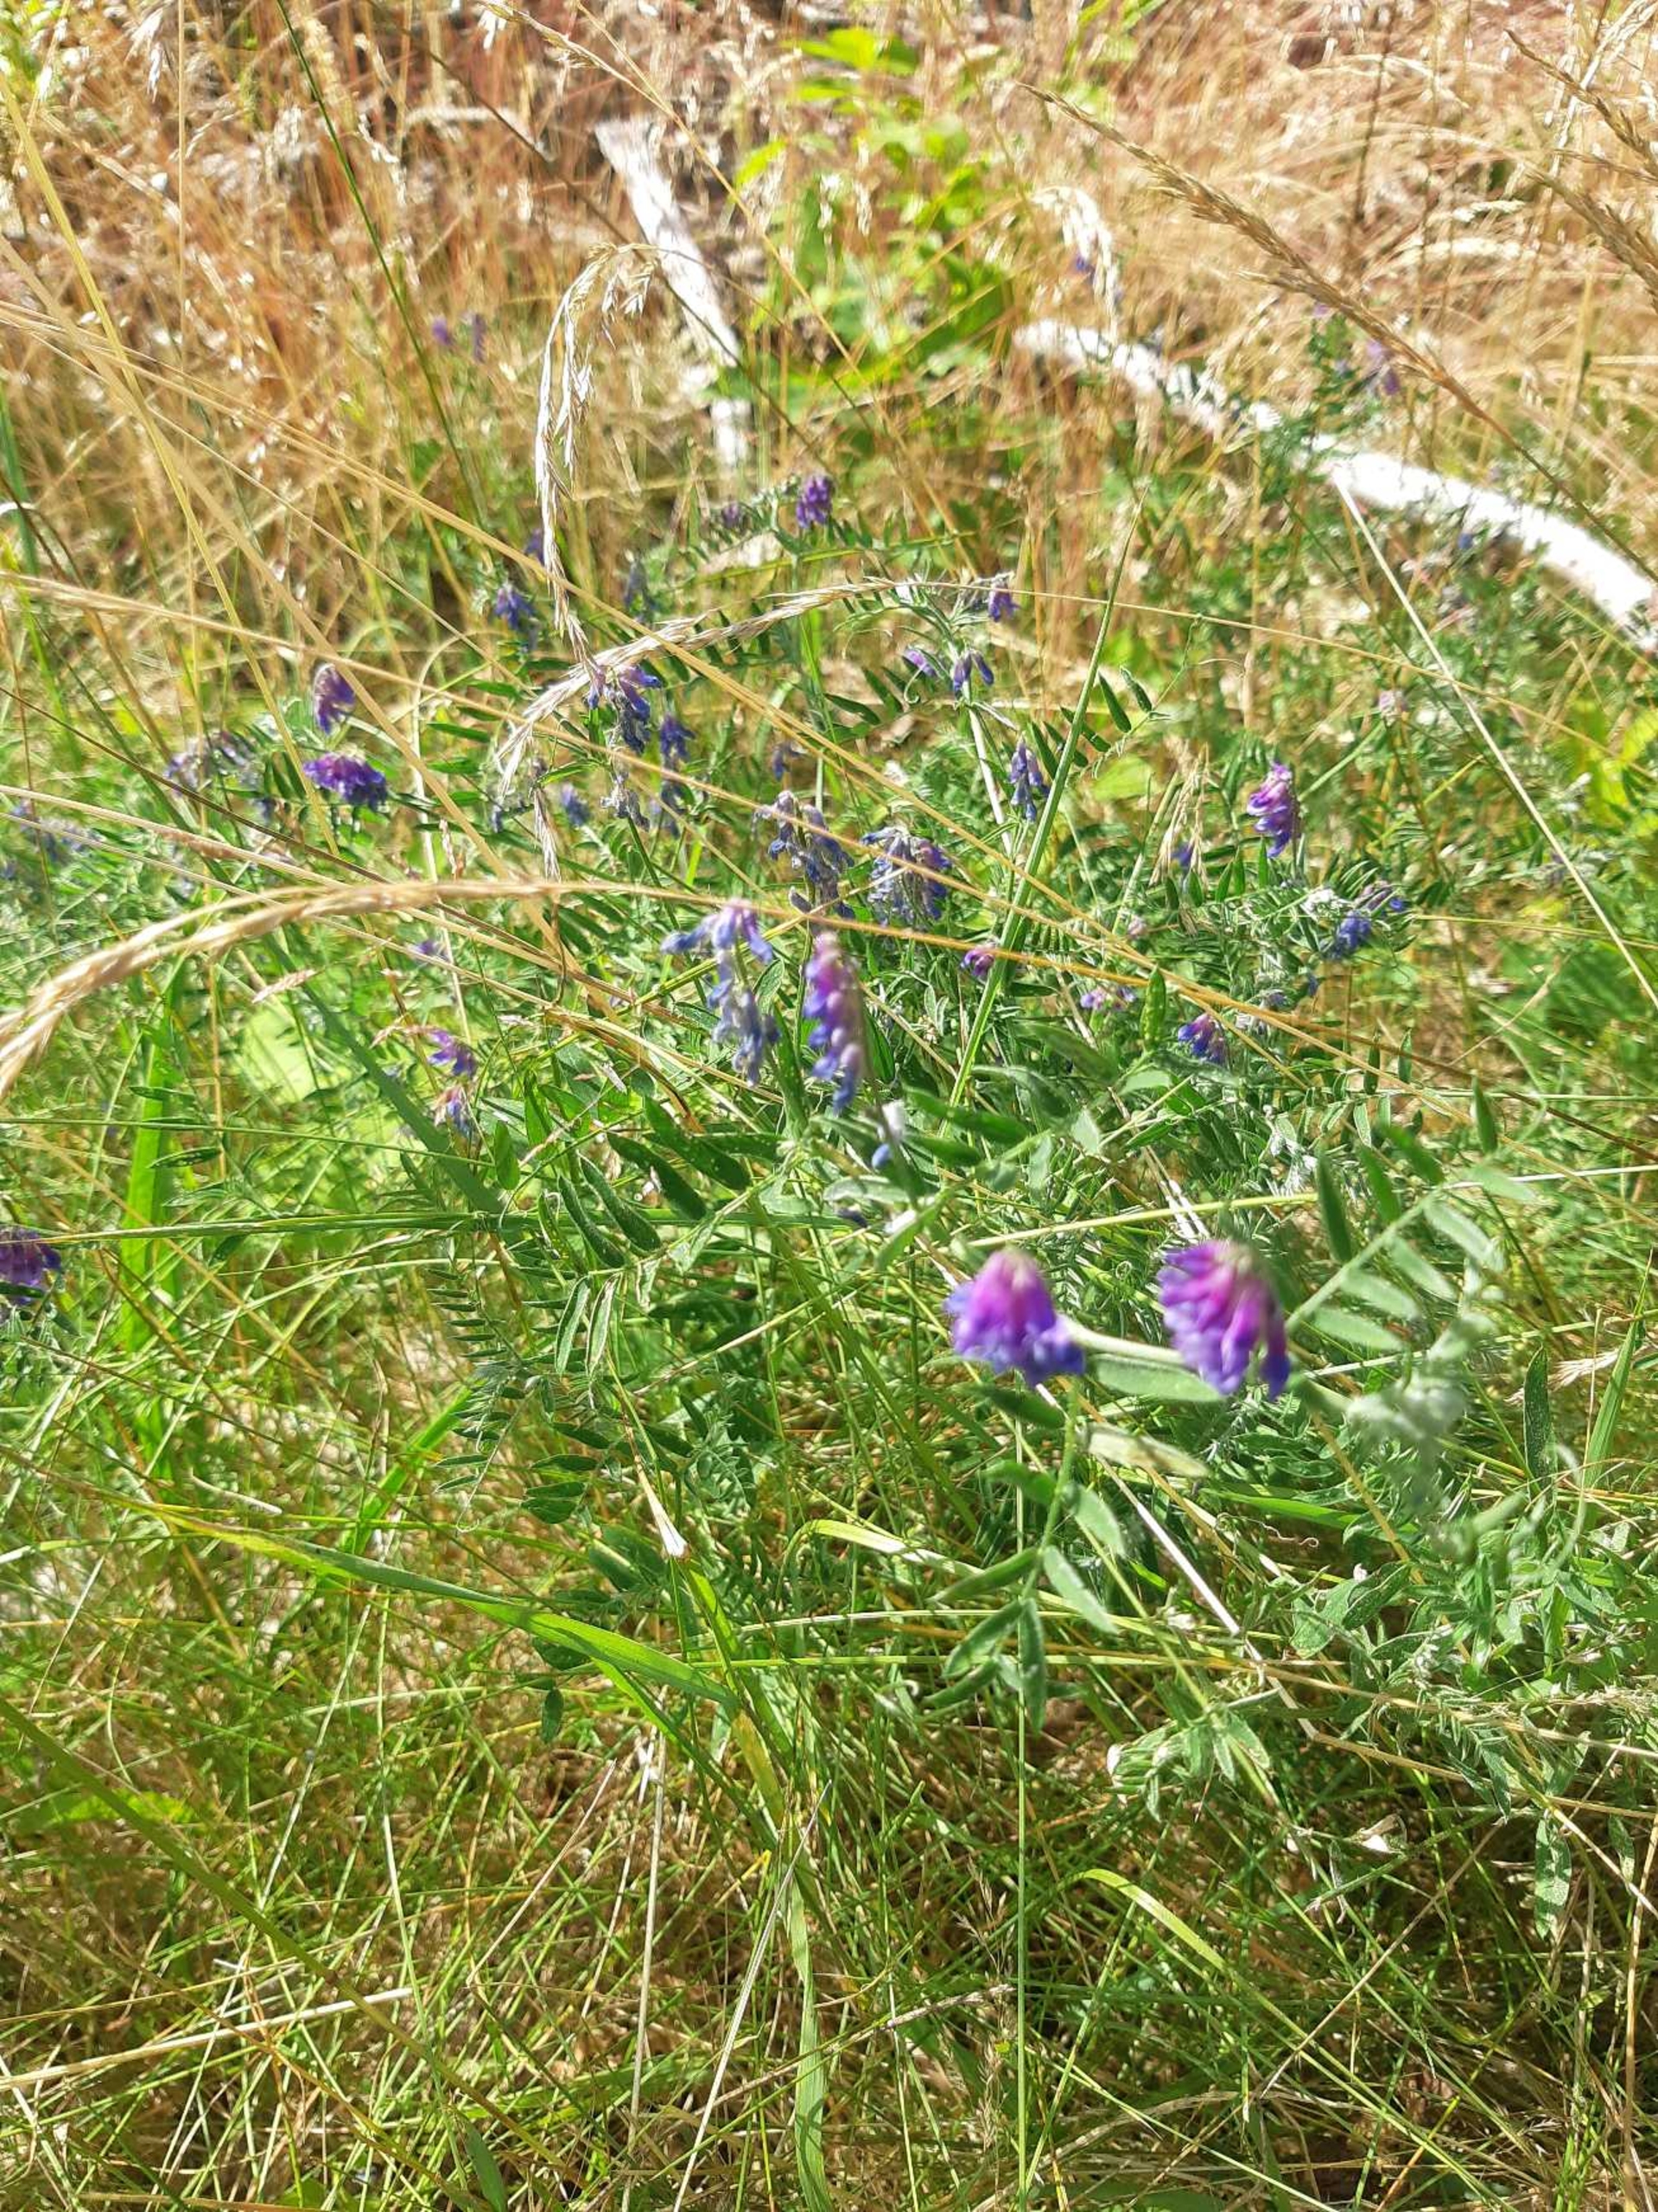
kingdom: Plantae
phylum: Tracheophyta
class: Magnoliopsida
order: Fabales
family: Fabaceae
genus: Vicia
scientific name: Vicia cracca
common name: Muse-vikke
